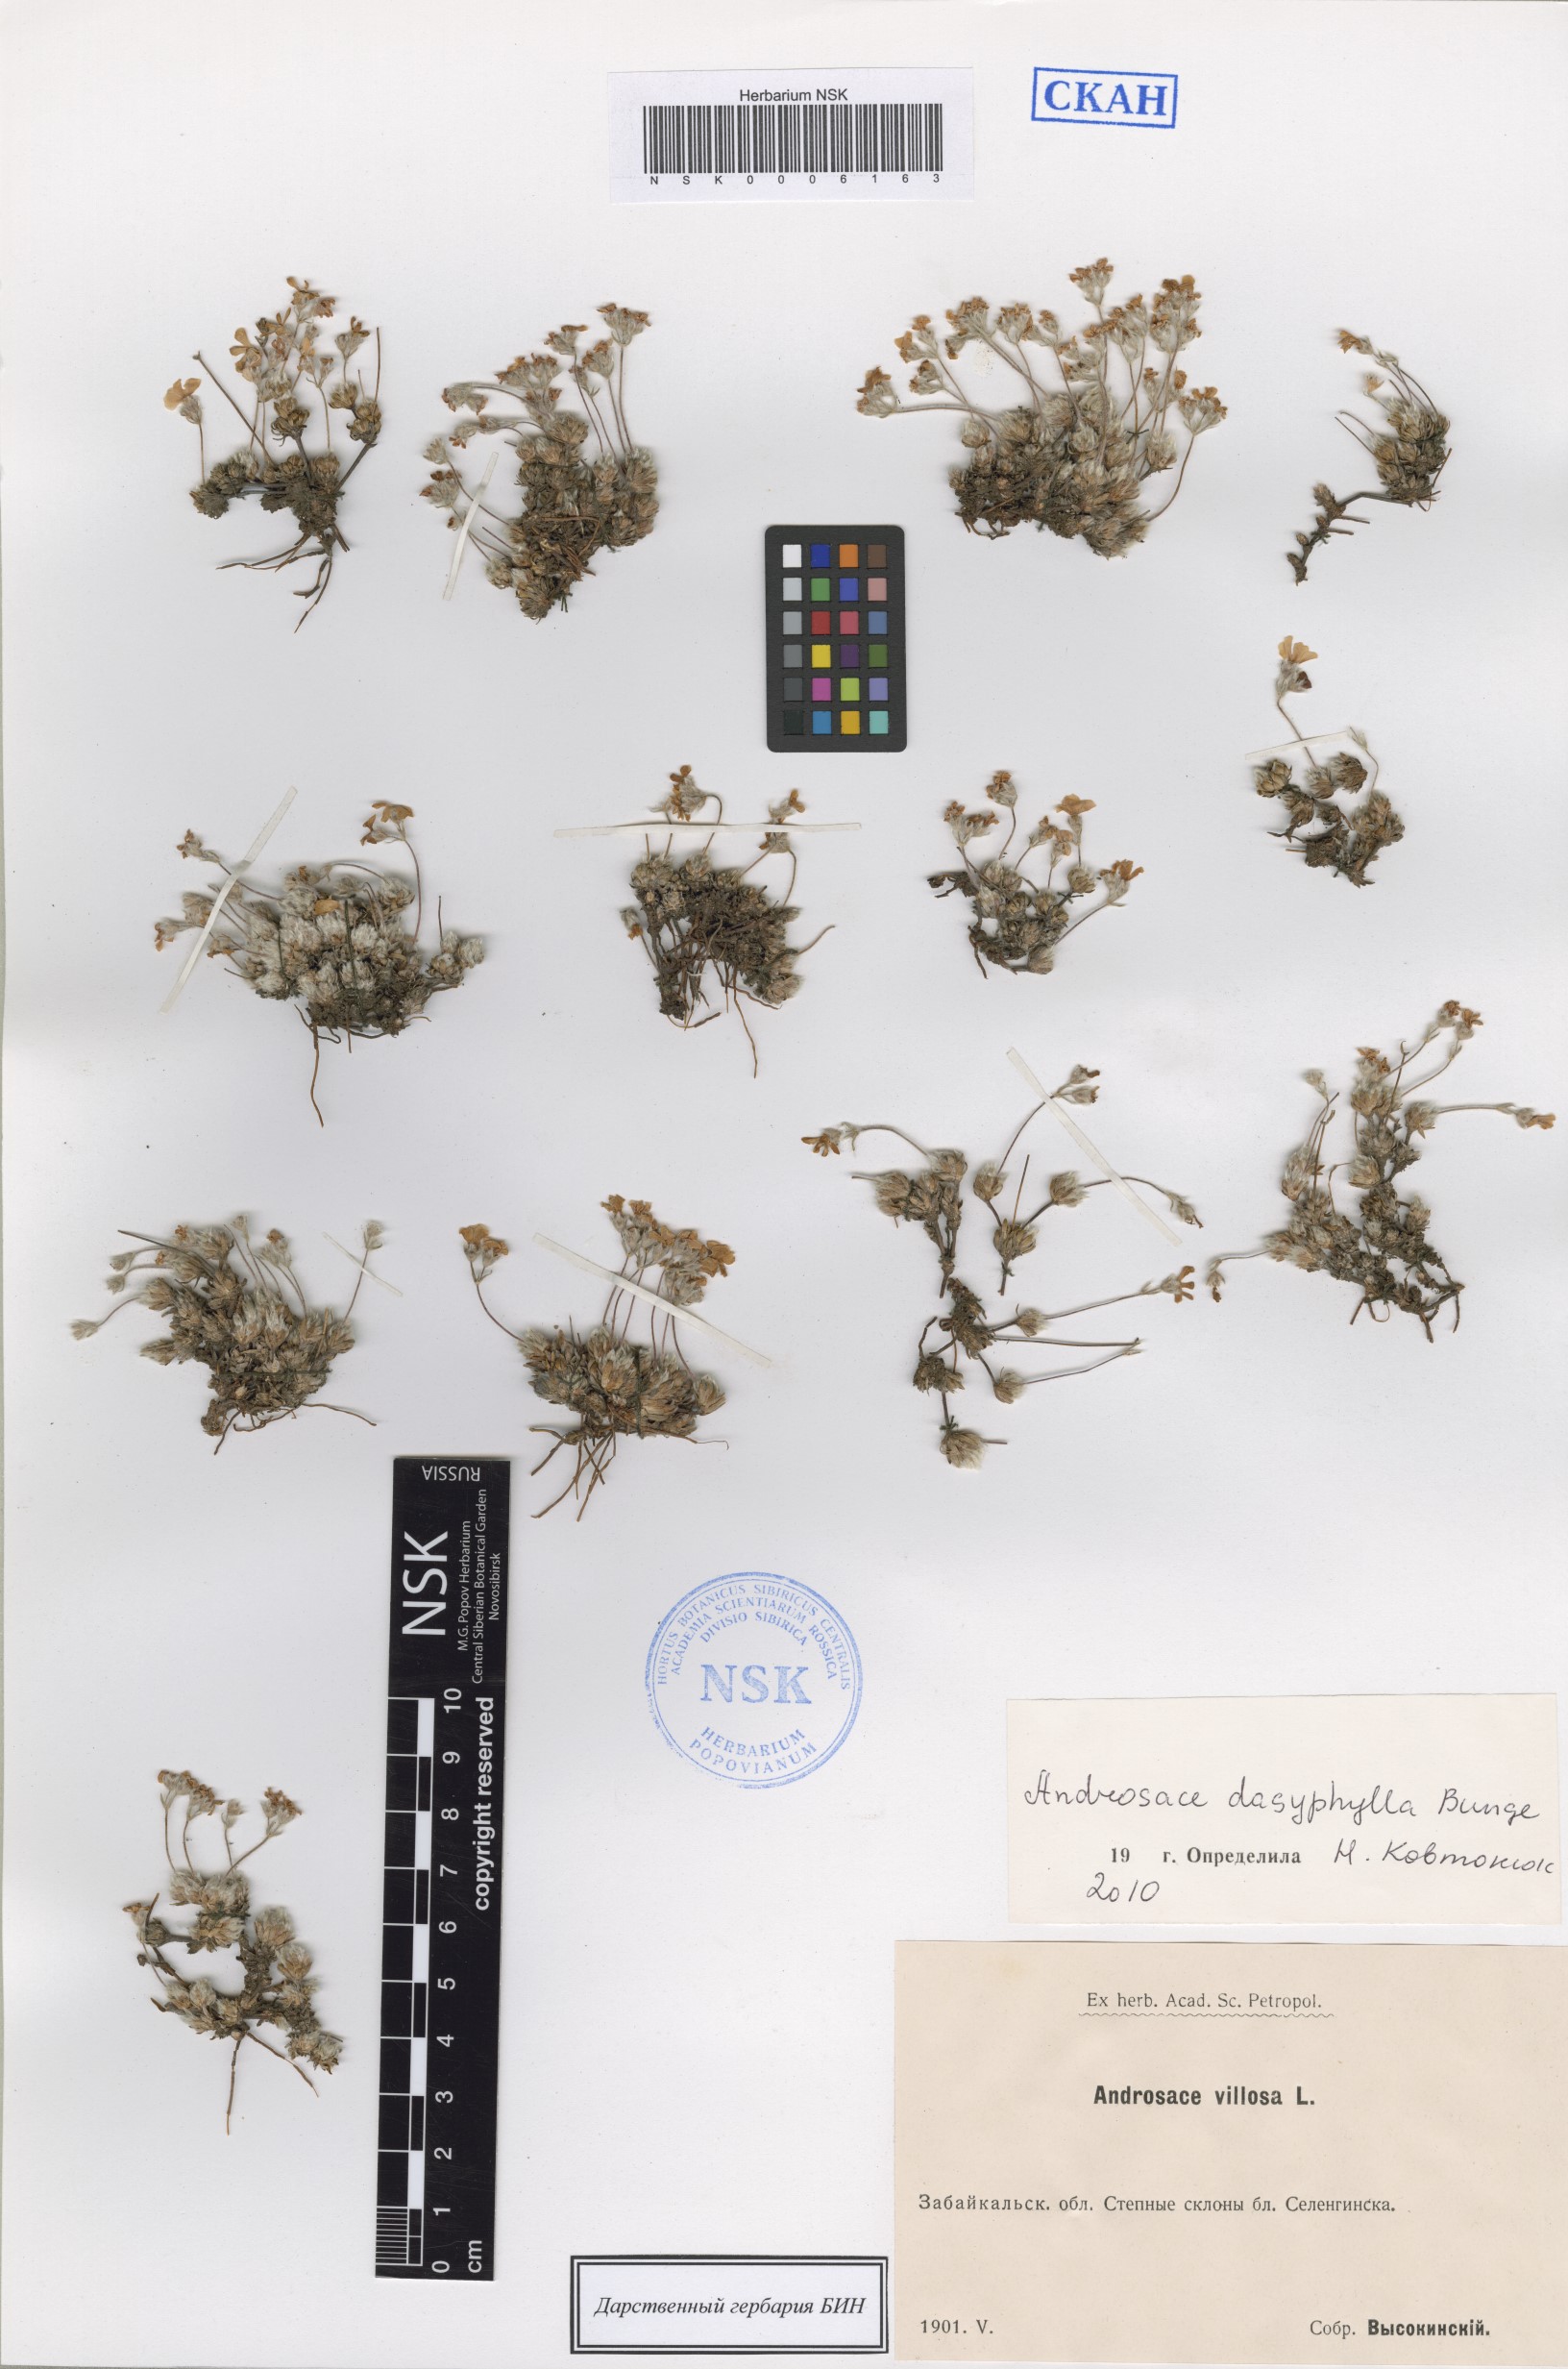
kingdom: Plantae
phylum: Tracheophyta
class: Magnoliopsida
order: Ericales
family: Primulaceae
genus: Androsace
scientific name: Androsace dasyphylla
